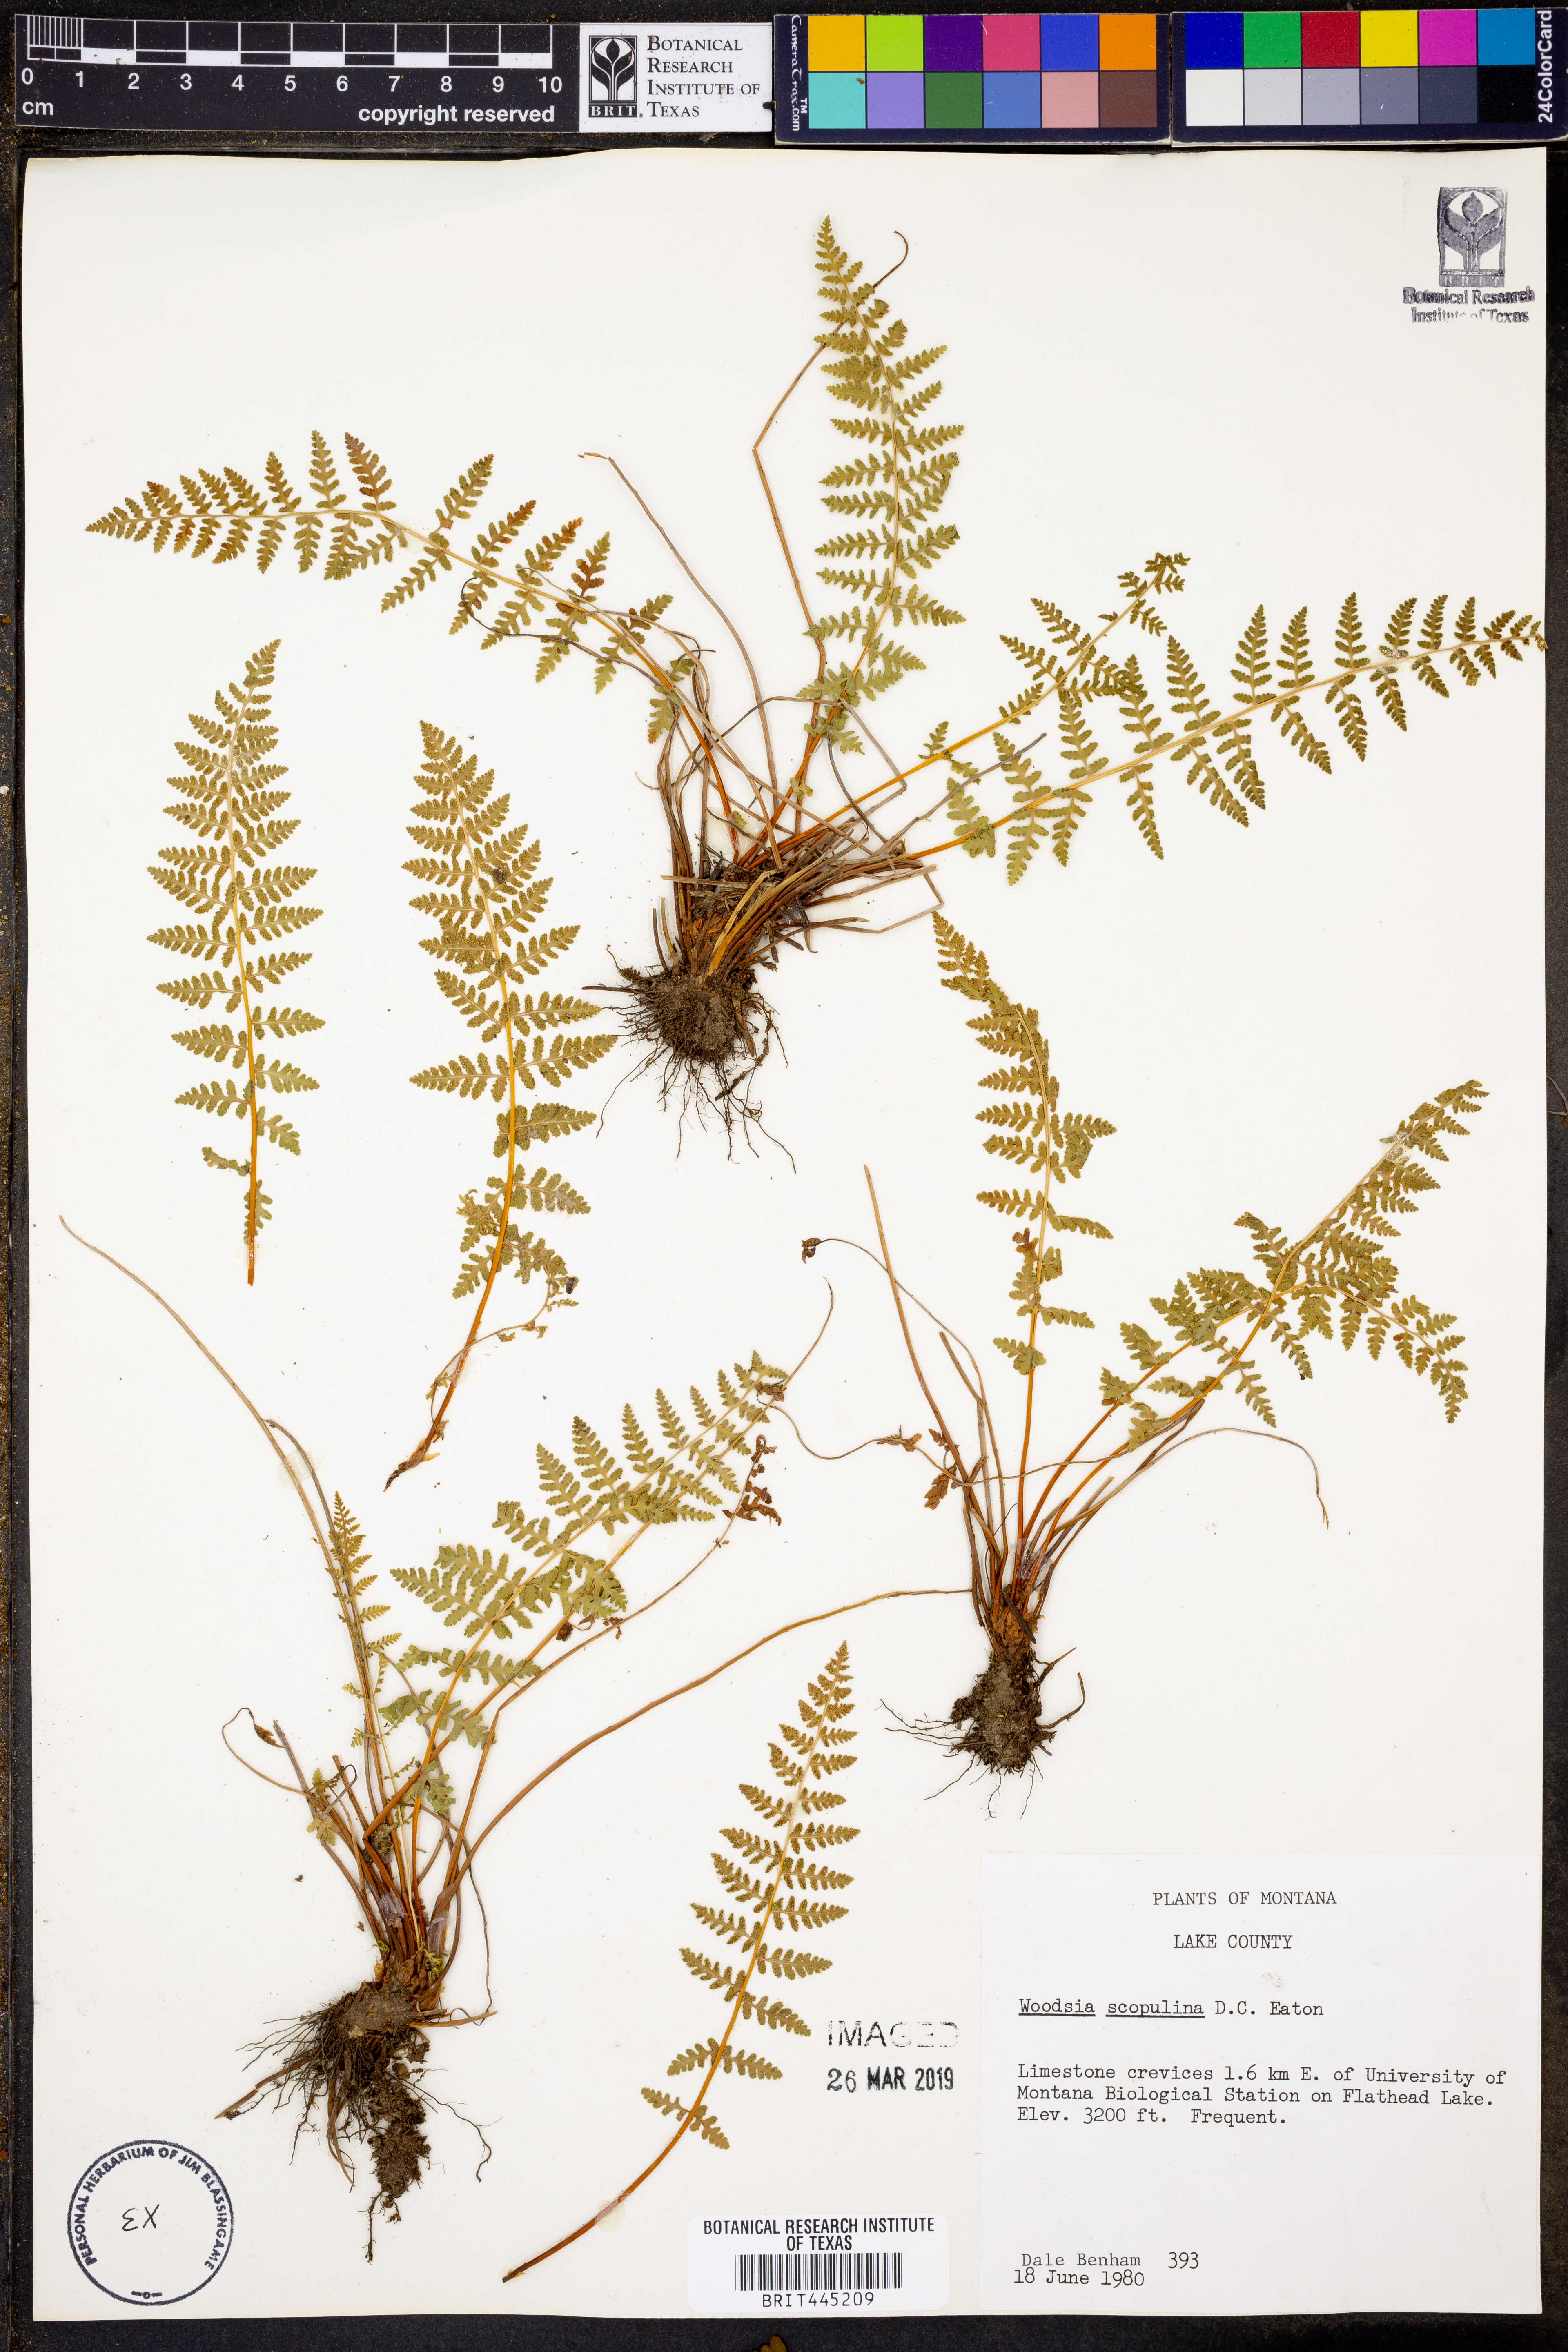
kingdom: Plantae
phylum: Tracheophyta
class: Polypodiopsida
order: Polypodiales
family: Woodsiaceae
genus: Physematium
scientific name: Physematium scopulinum
